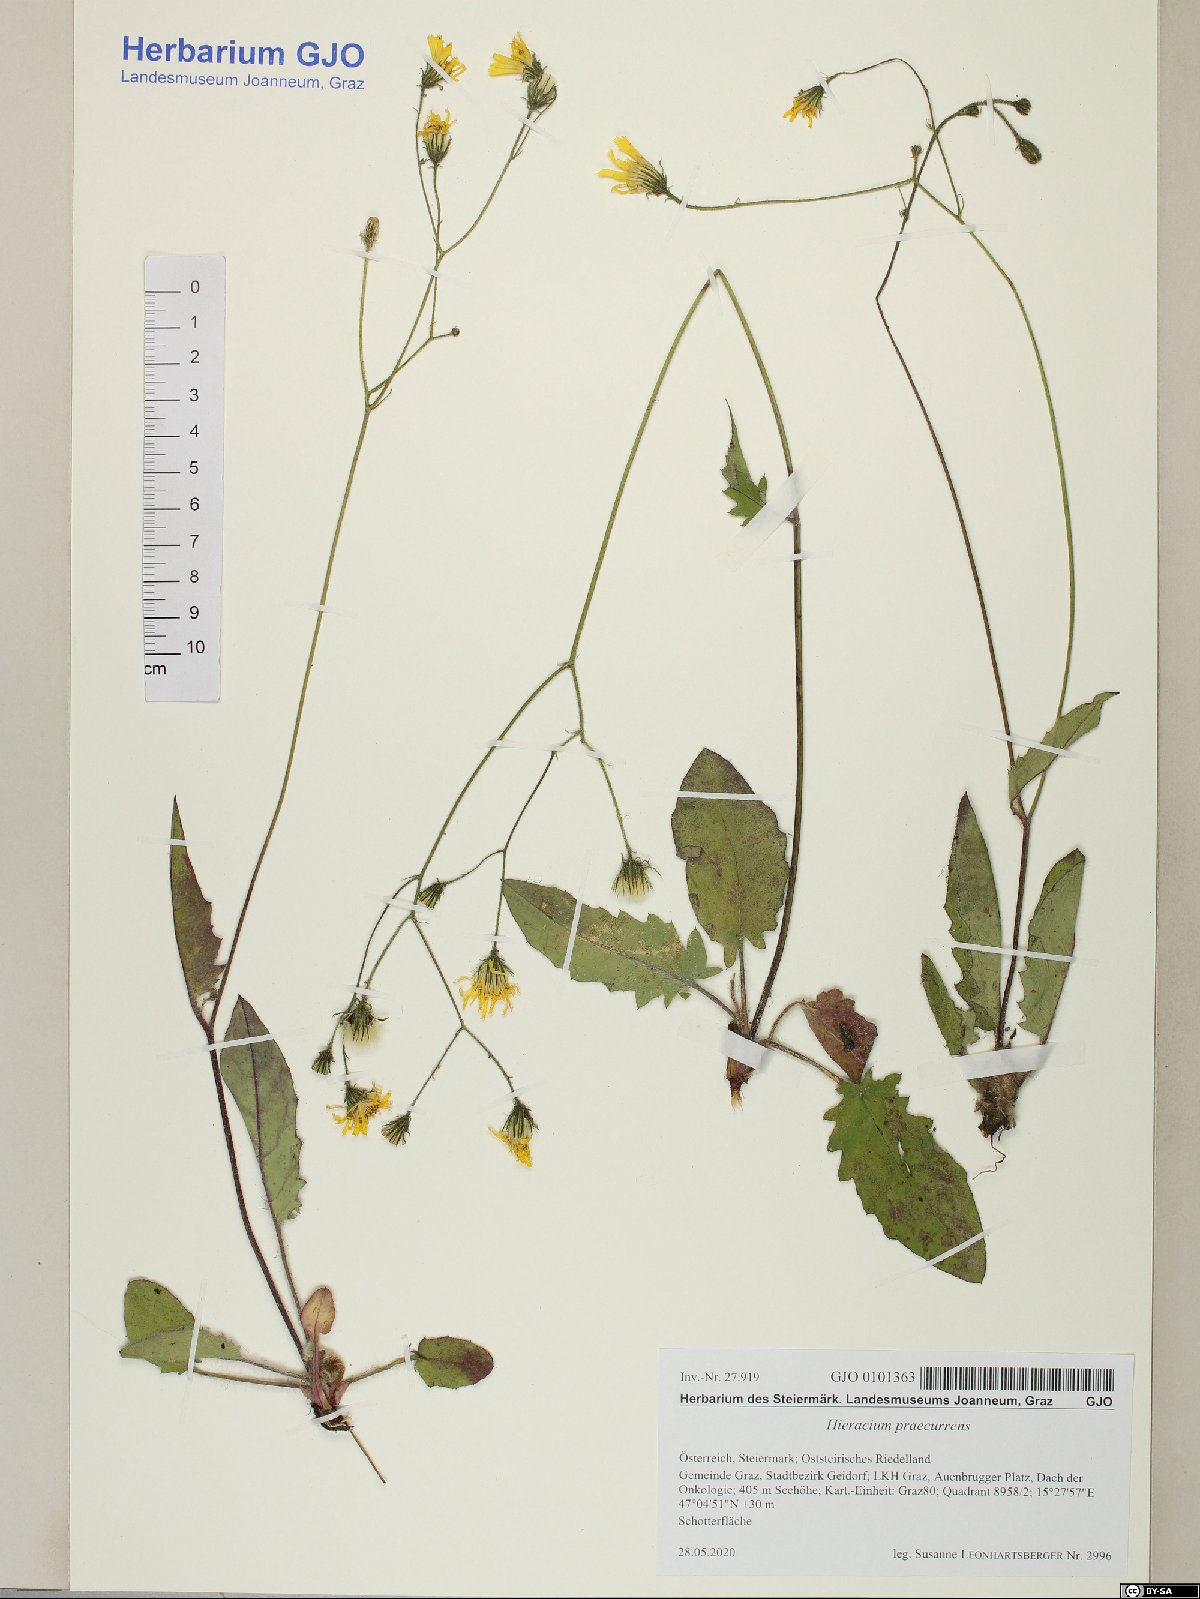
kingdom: Plantae
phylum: Tracheophyta
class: Magnoliopsida
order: Asterales
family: Asteraceae
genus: Hieracium
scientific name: Hieracium rotundatum
